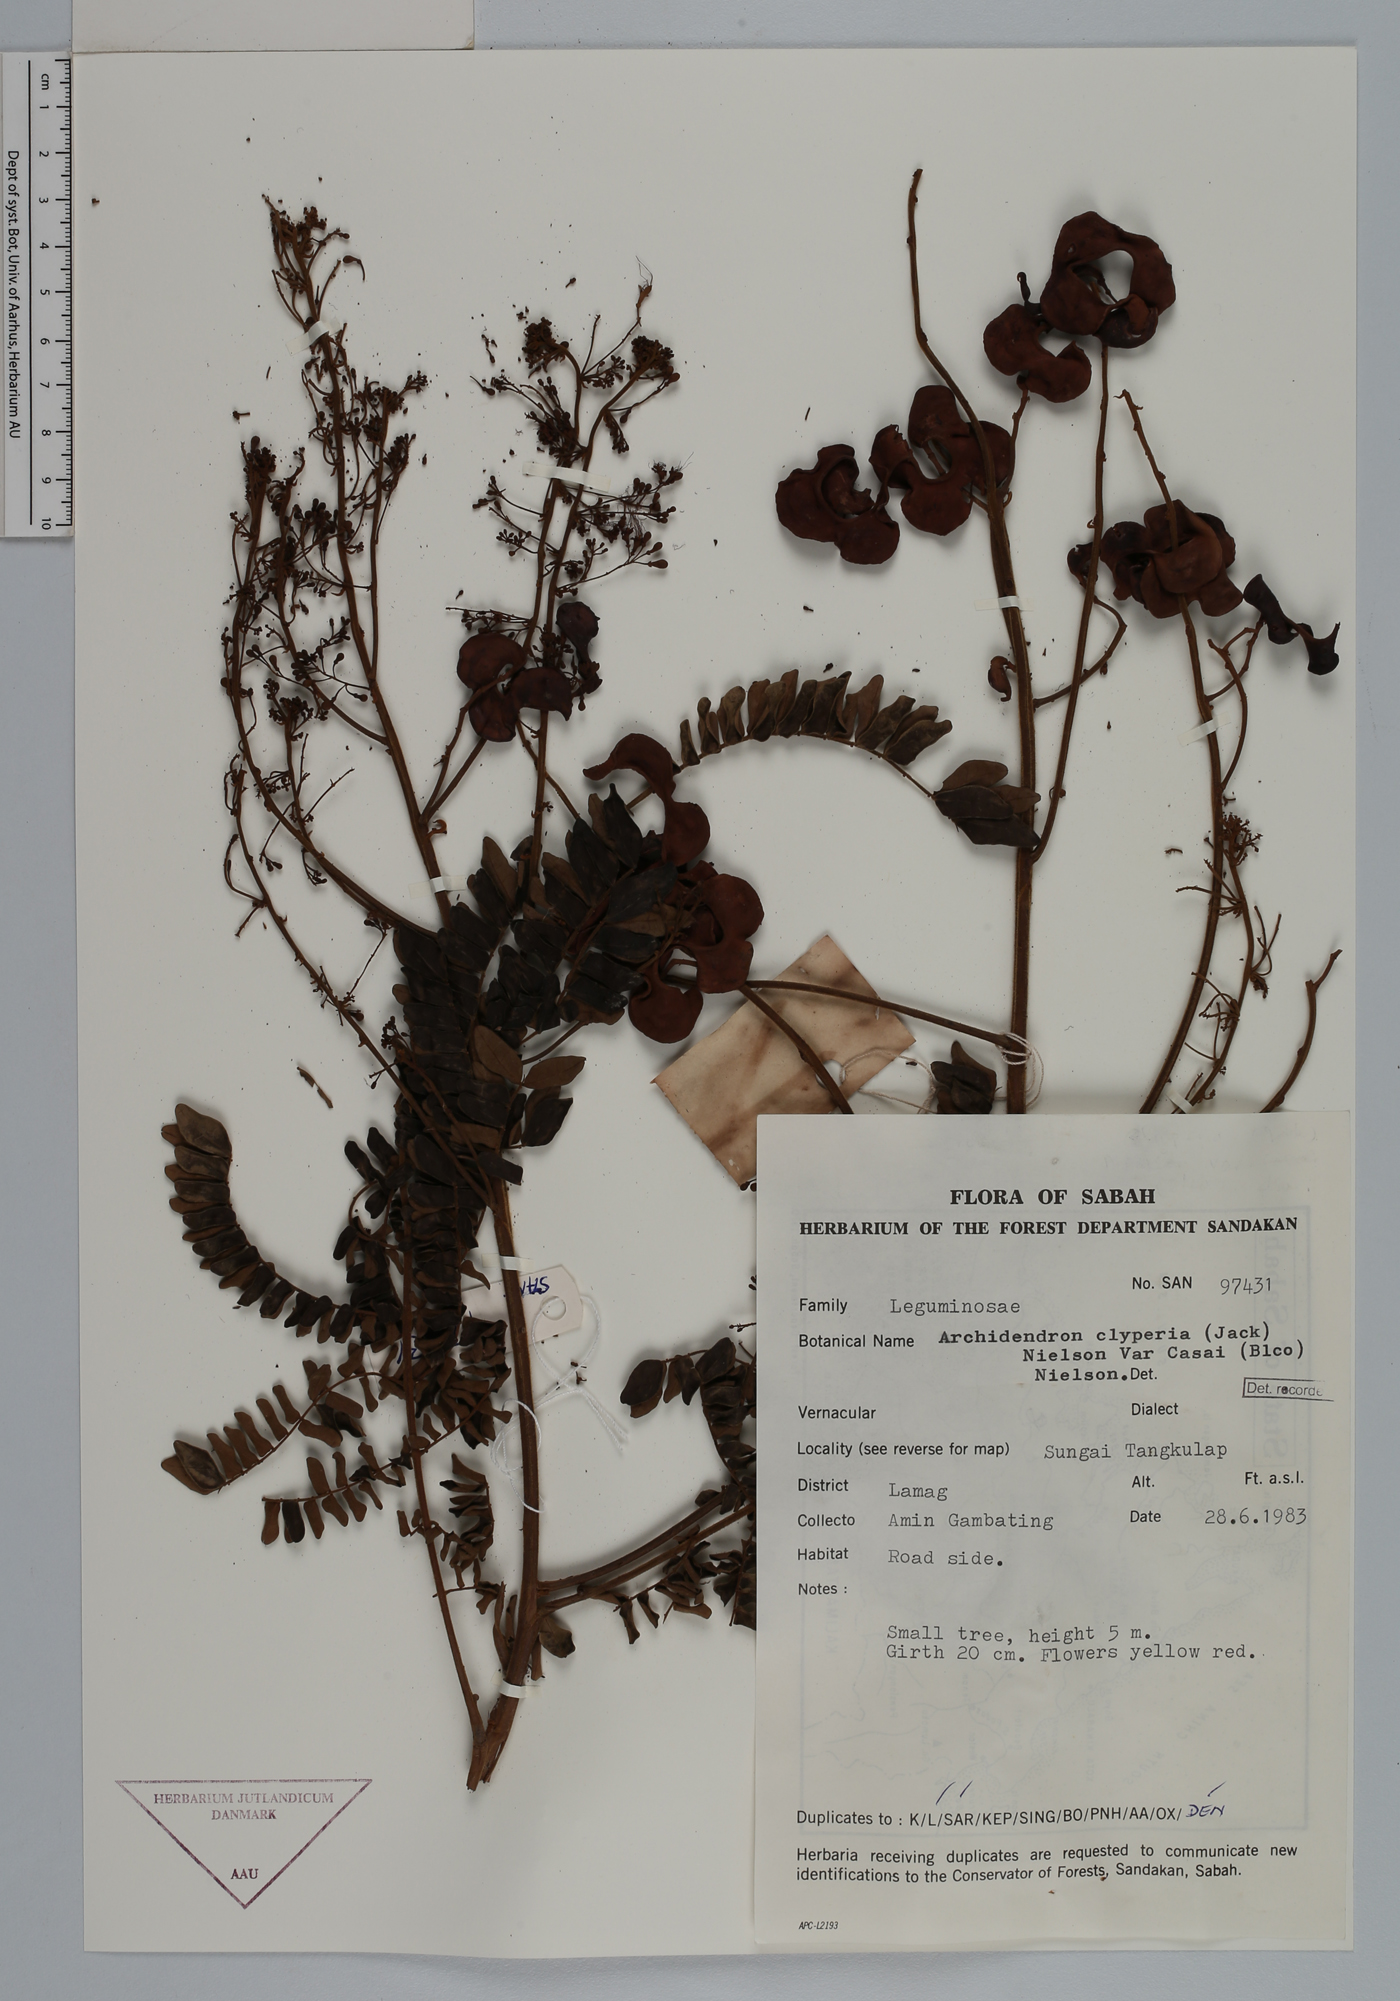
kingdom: Plantae
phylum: Tracheophyta
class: Magnoliopsida
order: Fabales
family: Fabaceae
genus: Archidendron
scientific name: Archidendron clypearia
